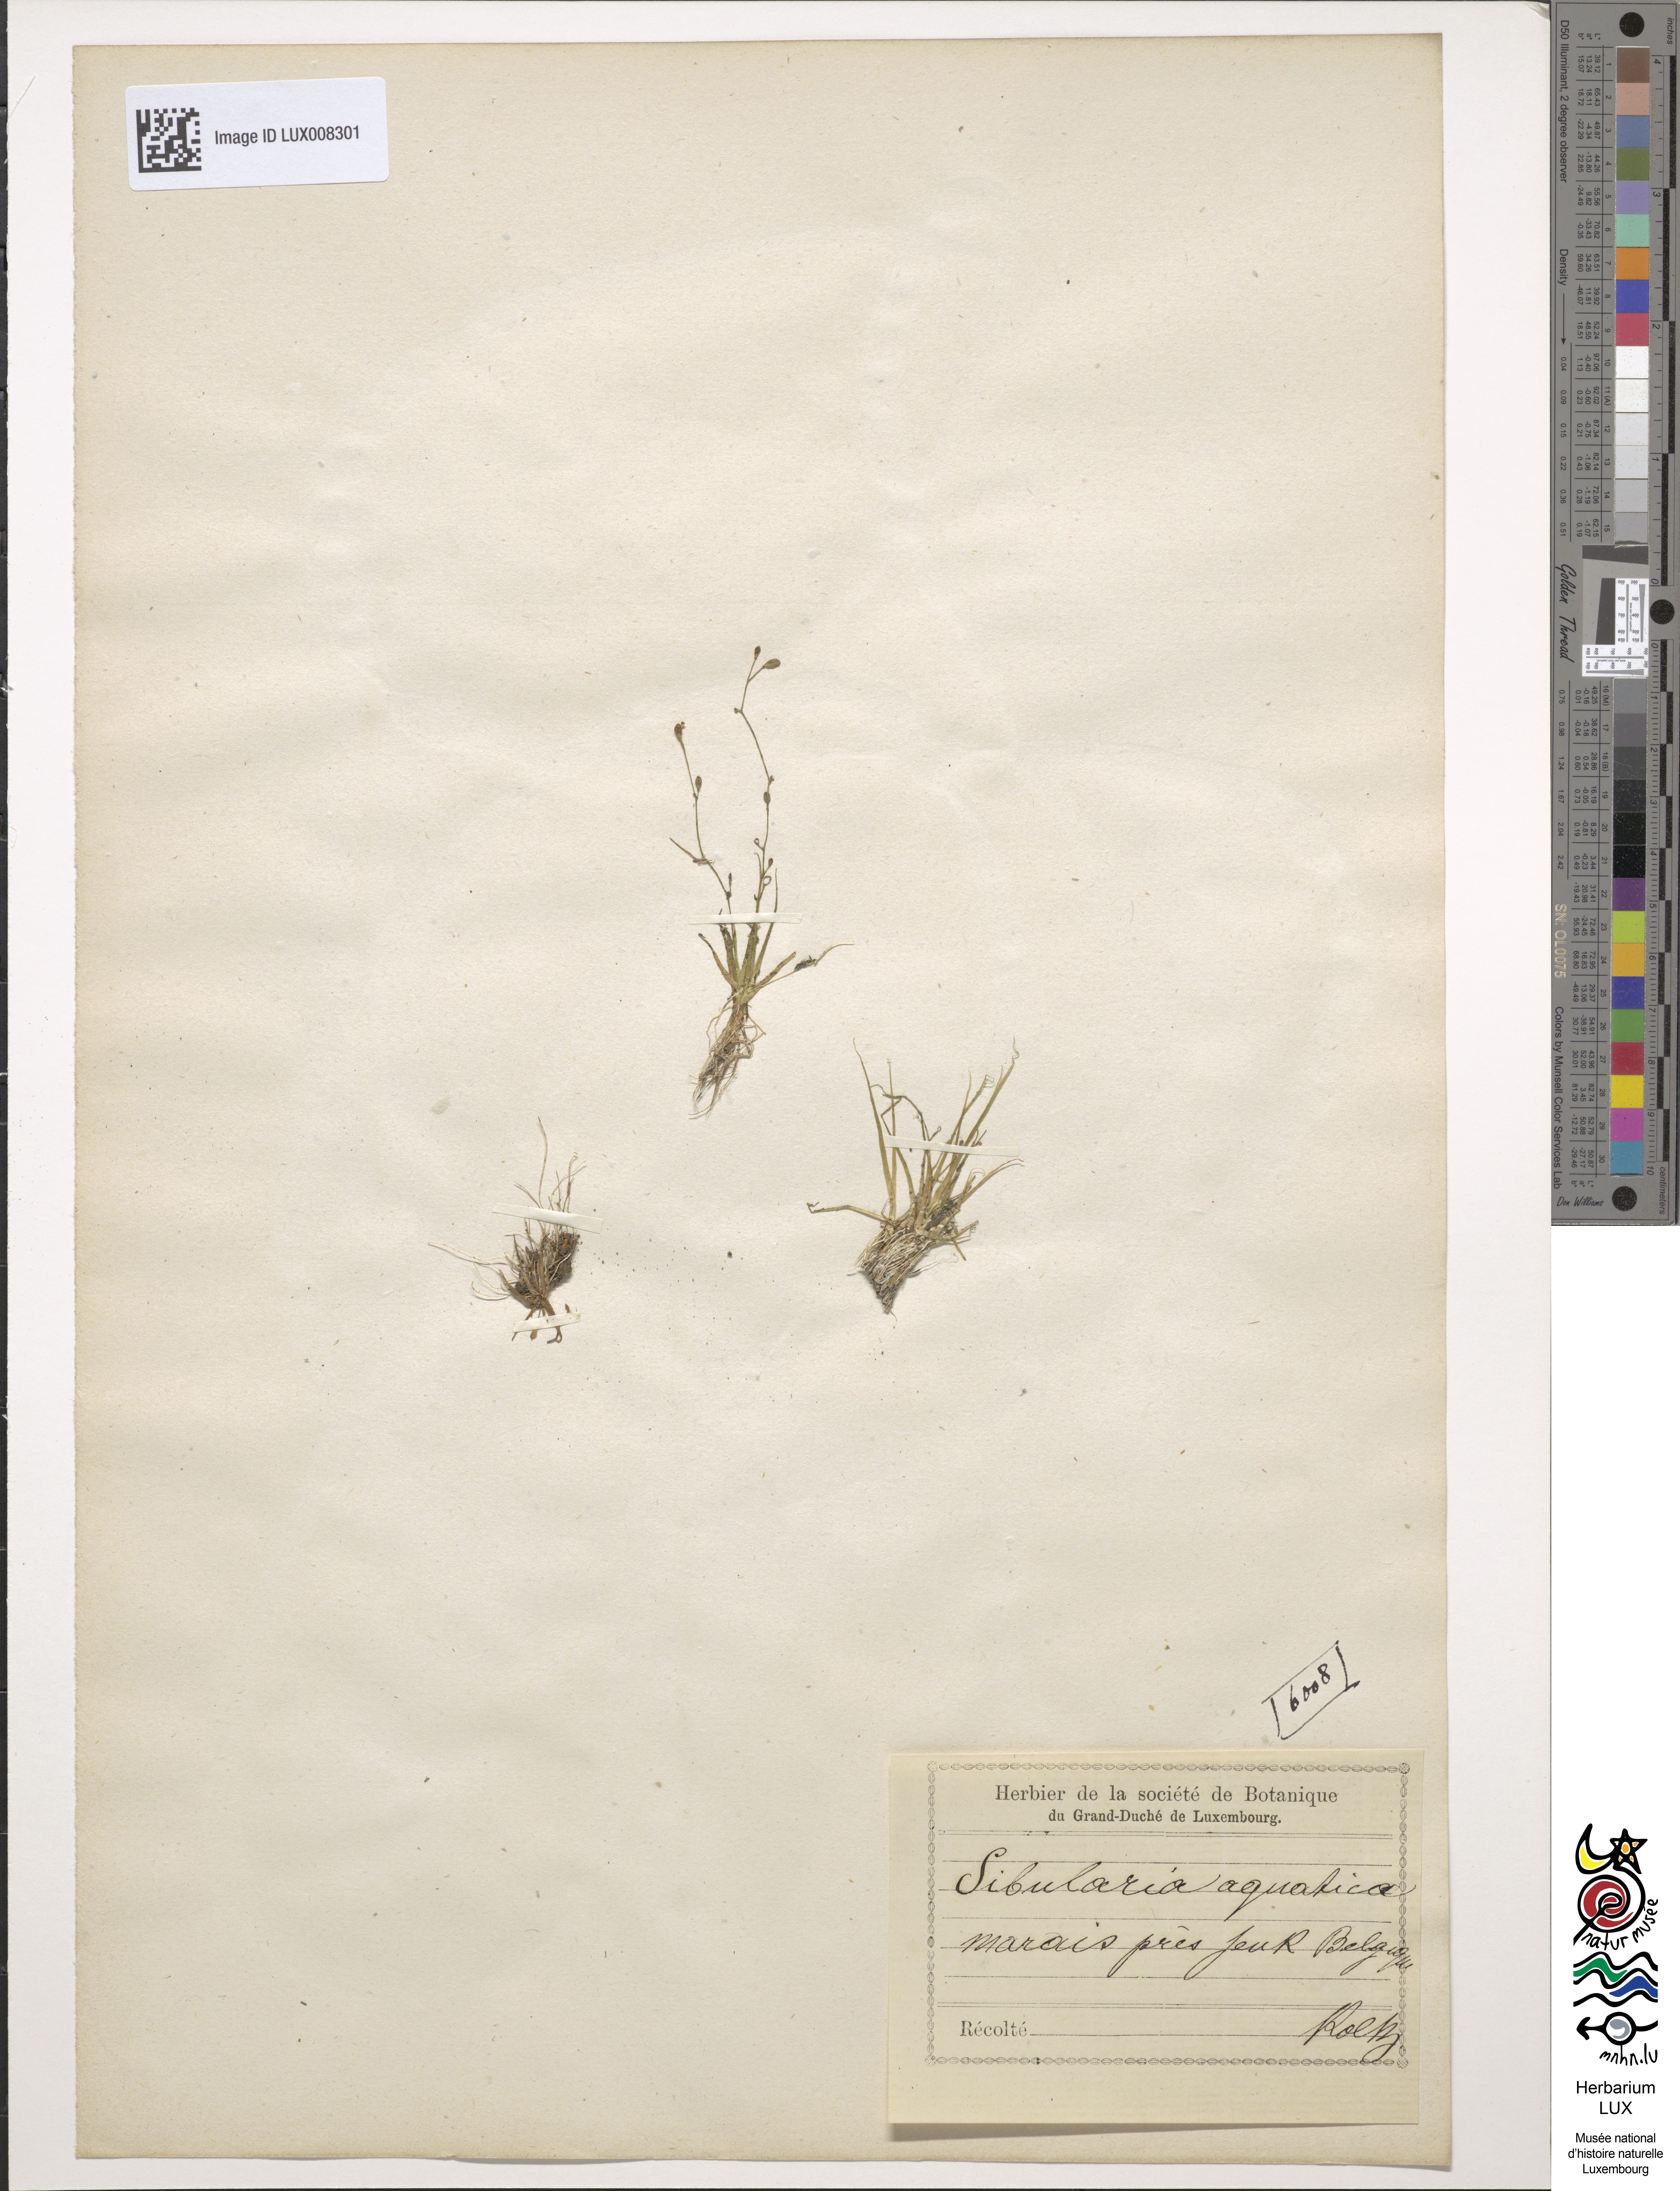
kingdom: Plantae
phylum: Tracheophyta
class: Magnoliopsida
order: Brassicales
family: Brassicaceae
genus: Subularia
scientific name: Subularia aquatica
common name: Awlwort
